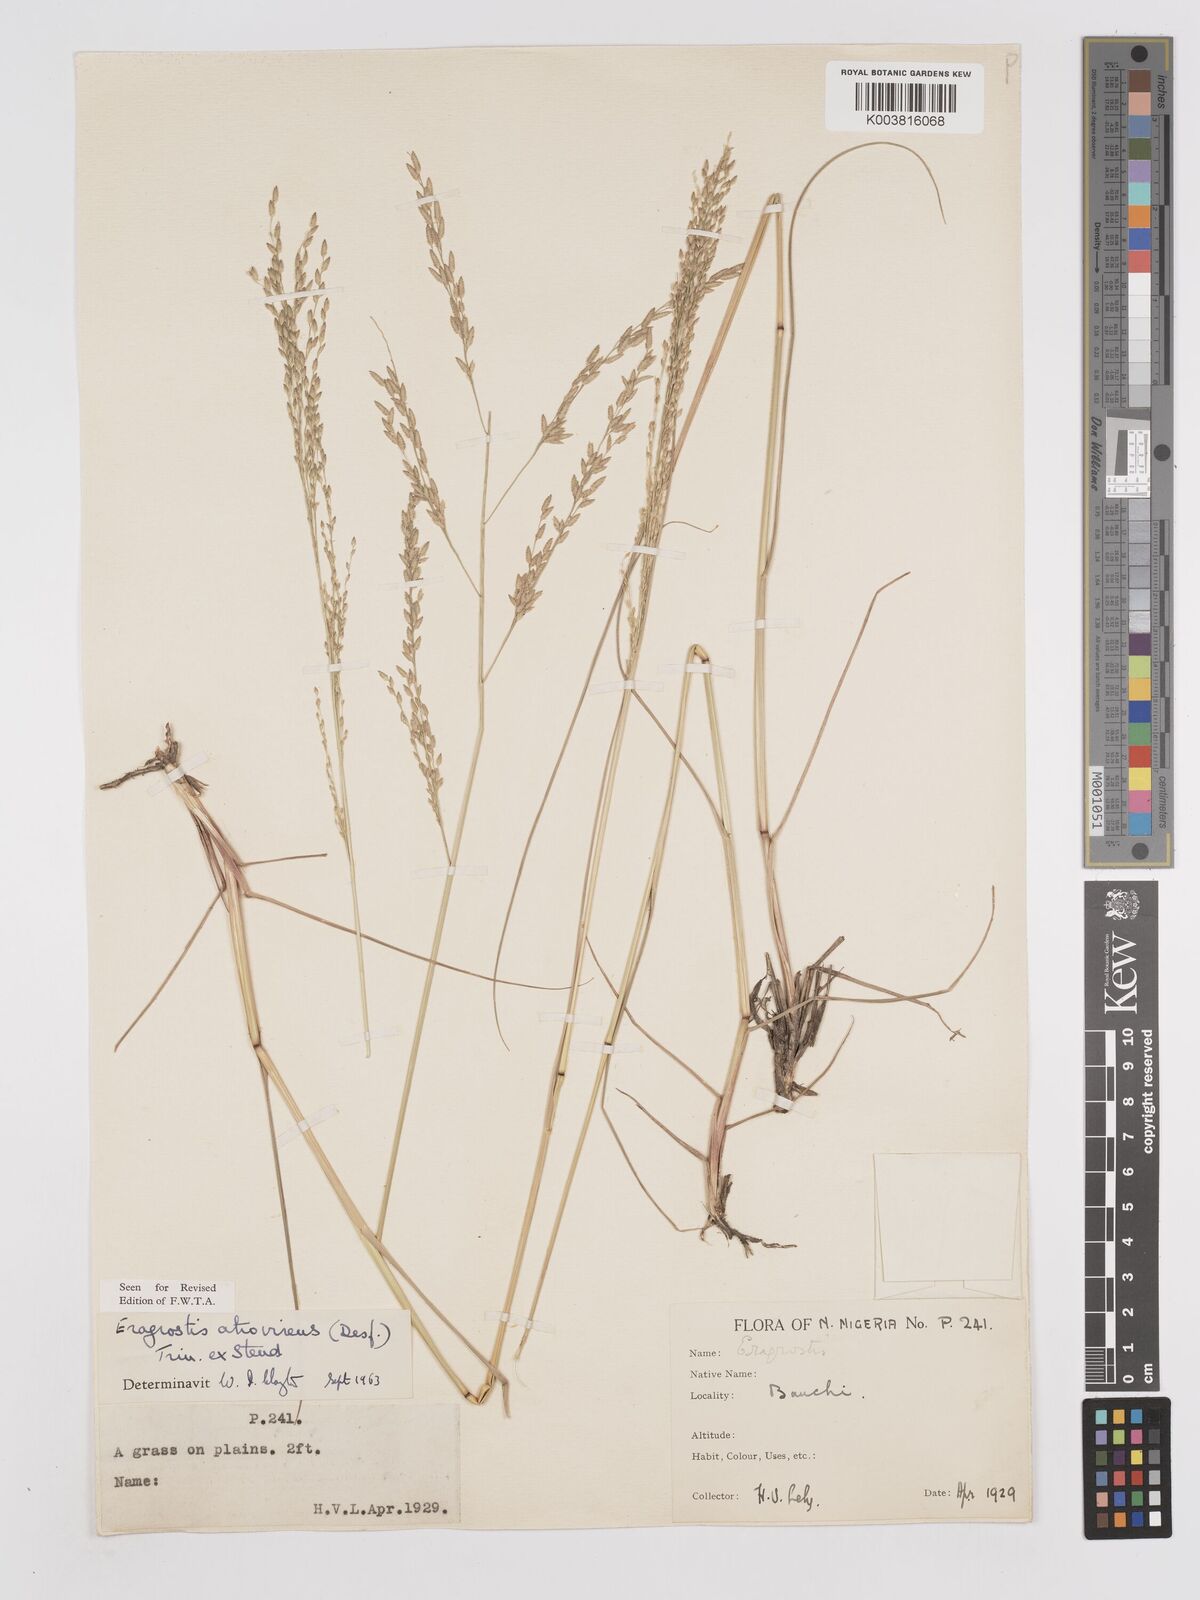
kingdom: Plantae
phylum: Tracheophyta
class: Liliopsida
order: Poales
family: Poaceae
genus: Eragrostis
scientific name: Eragrostis atrovirens
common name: Thalia lovegrass
